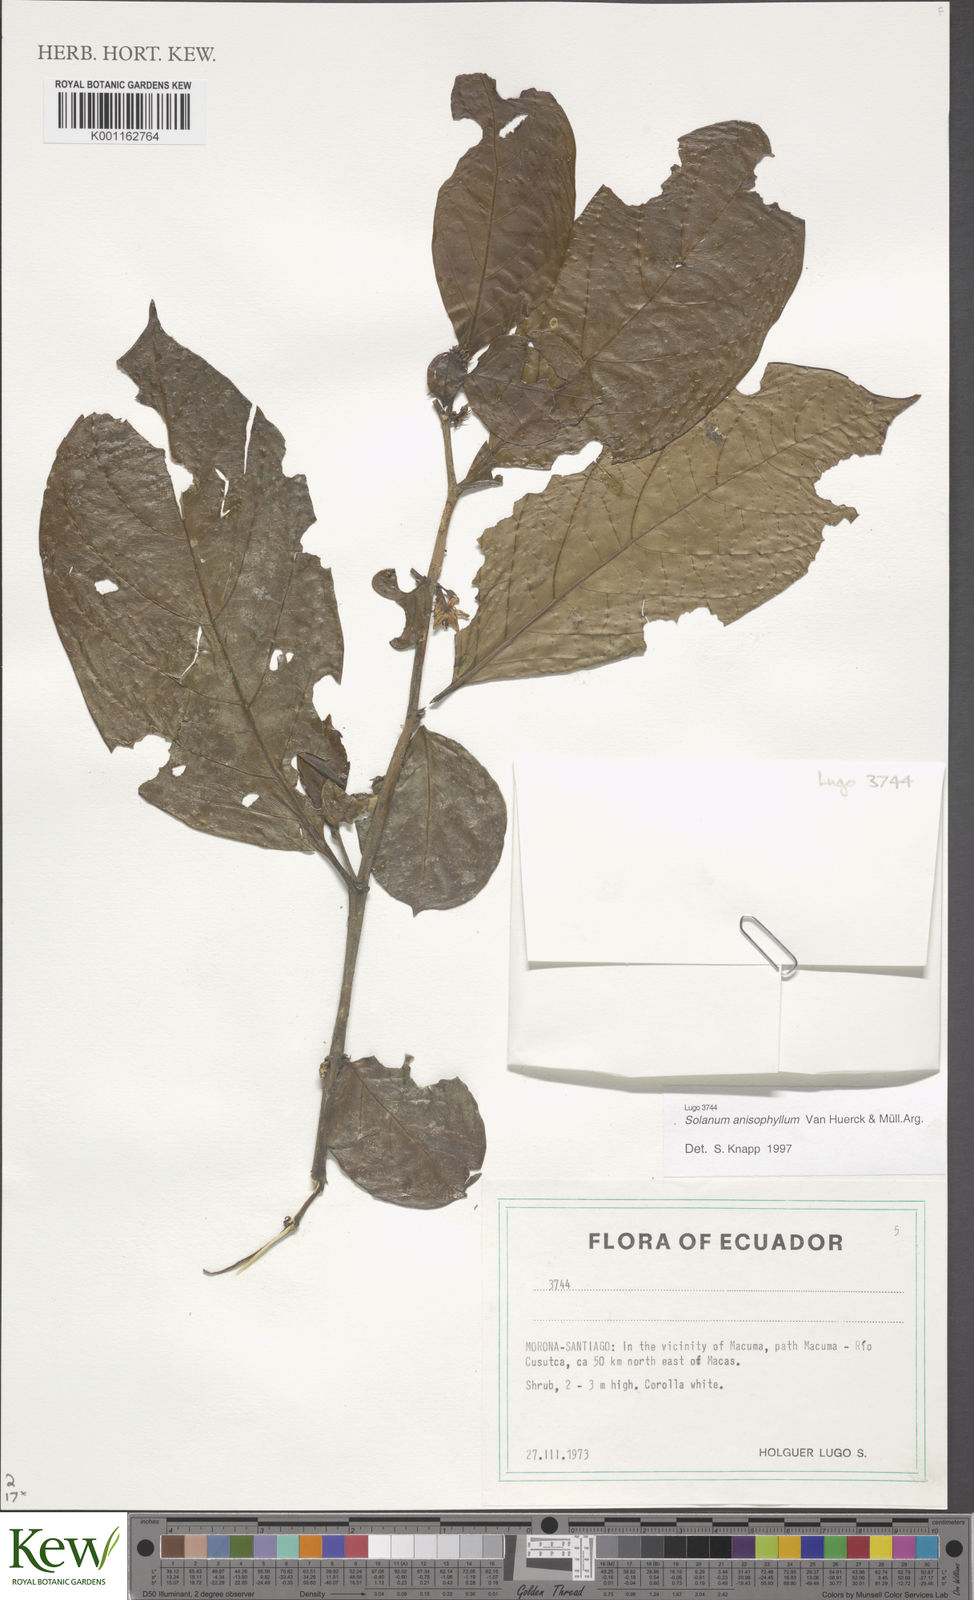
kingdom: Plantae
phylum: Tracheophyta
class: Magnoliopsida
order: Solanales
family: Solanaceae
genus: Solanum
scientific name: Solanum
